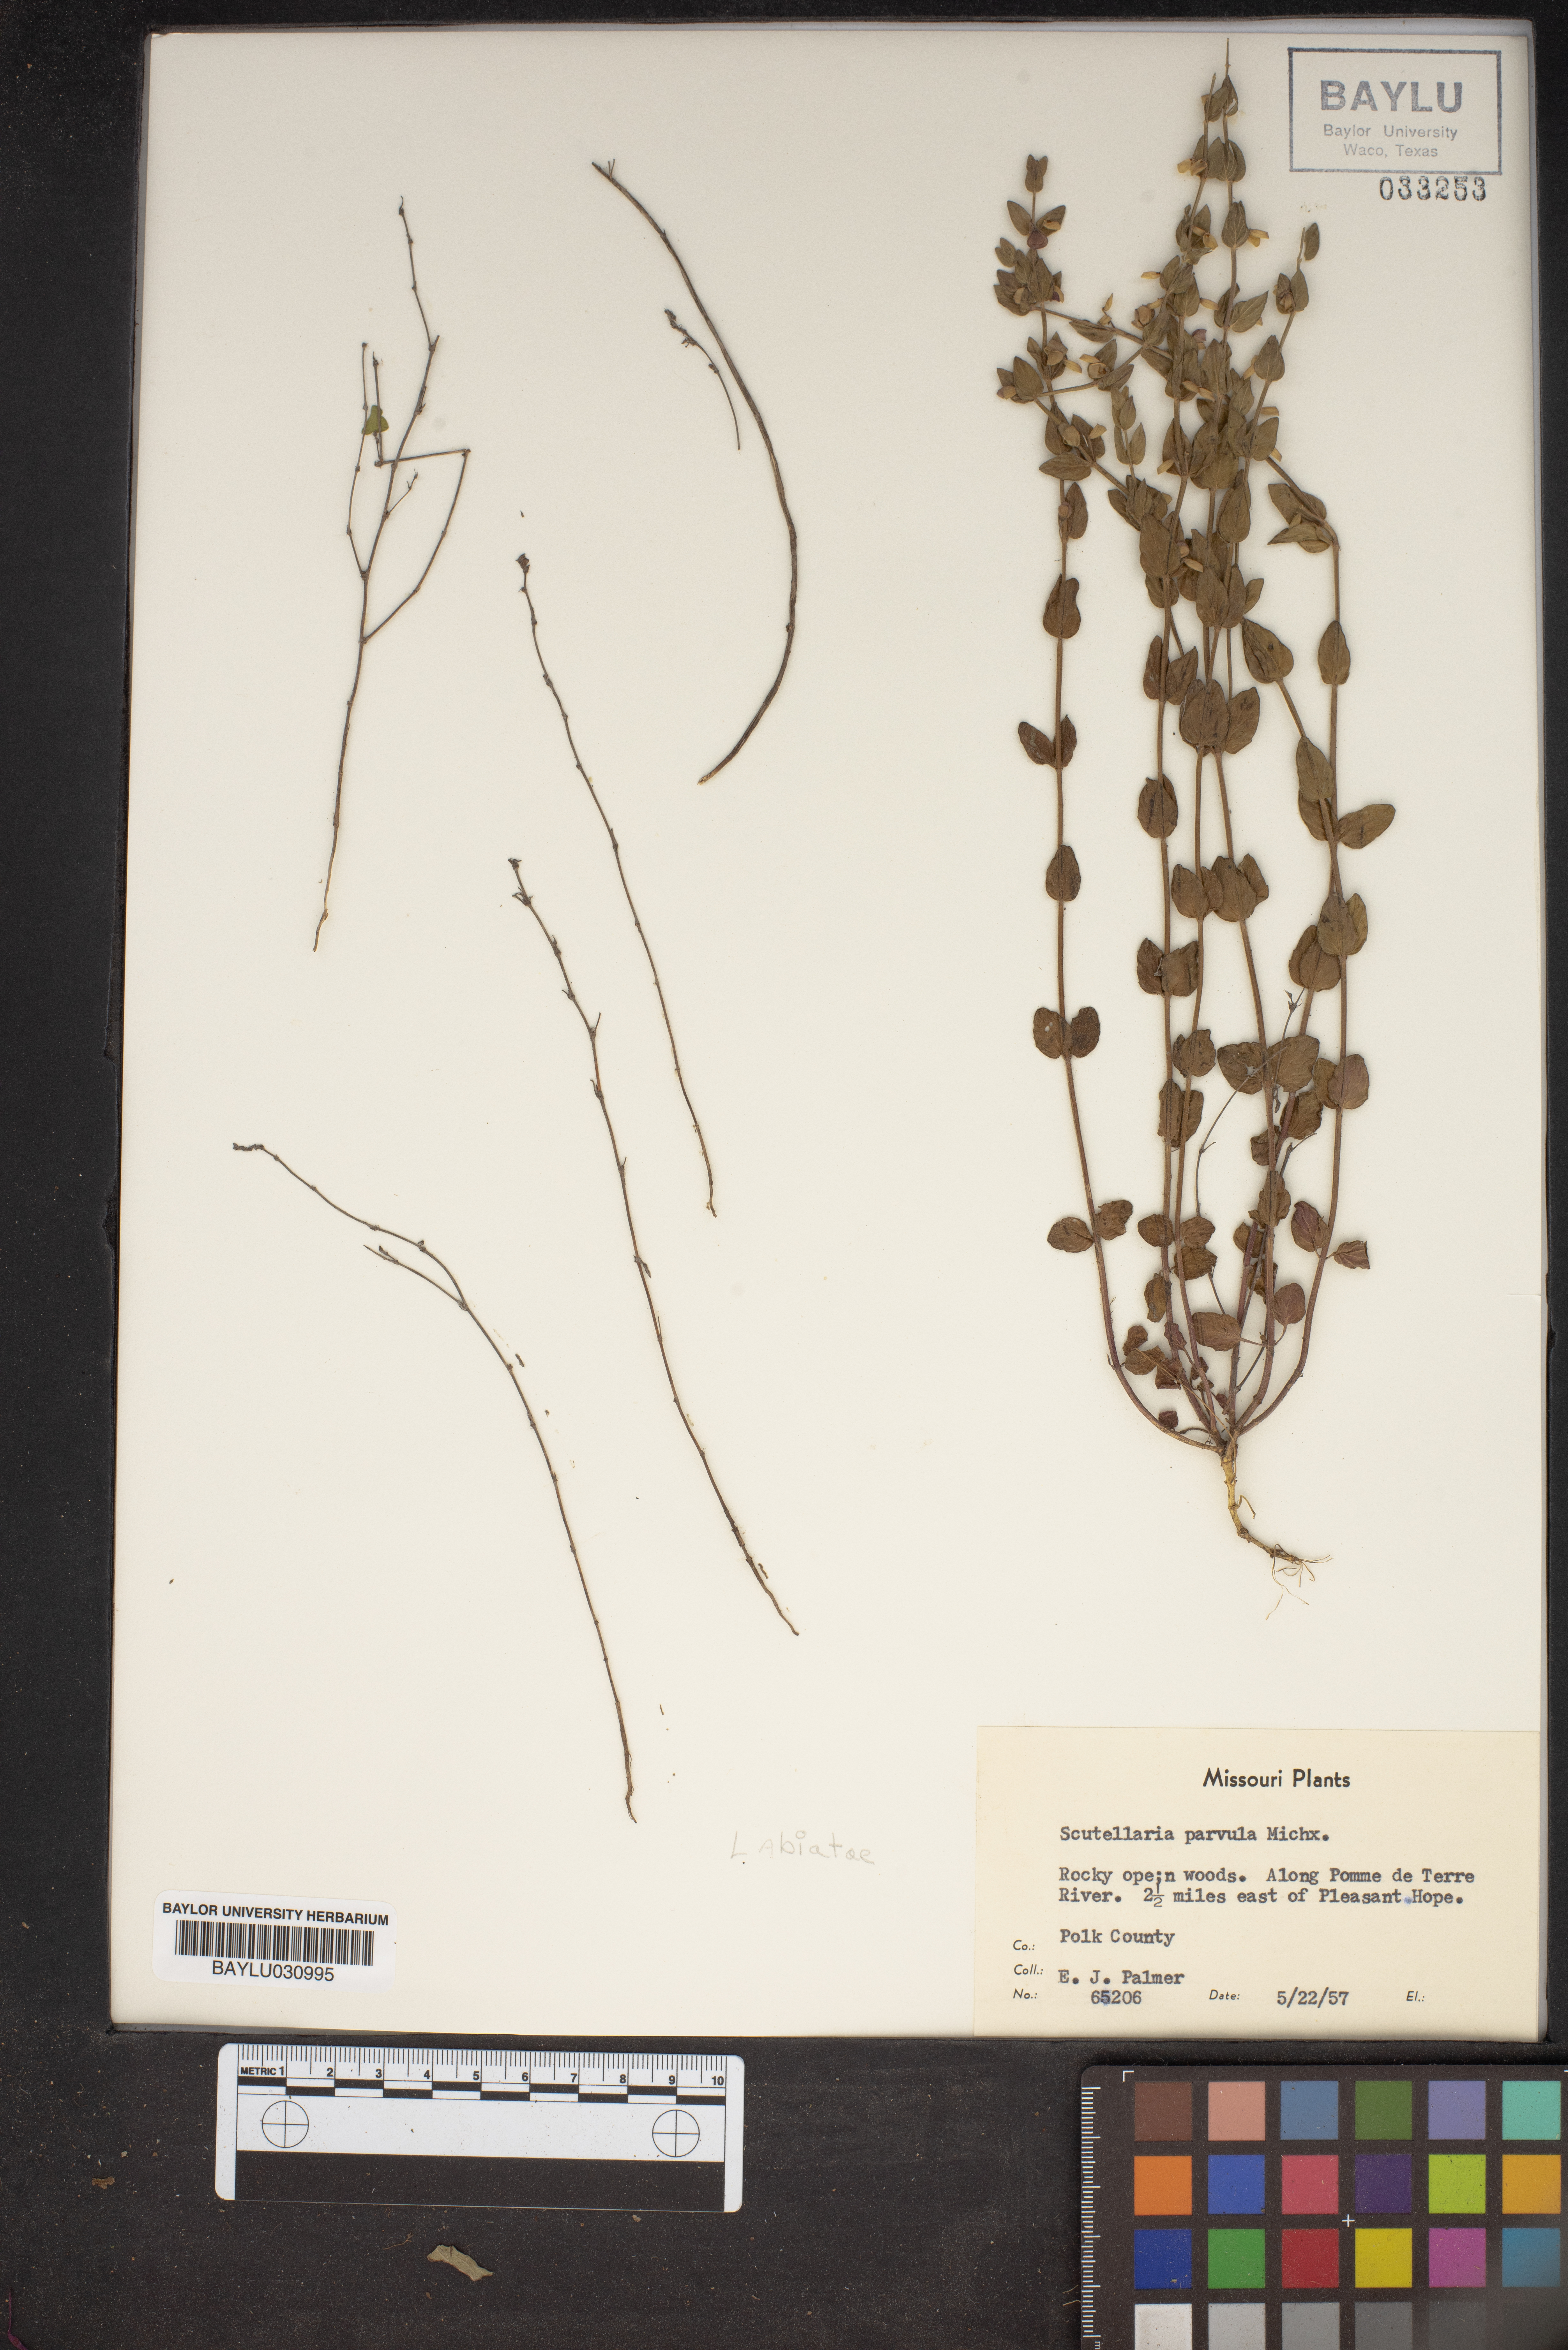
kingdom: Plantae
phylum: Tracheophyta
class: Magnoliopsida
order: Lamiales
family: Lamiaceae
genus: Scutellaria
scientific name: Scutellaria parvula
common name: Little scullcap
